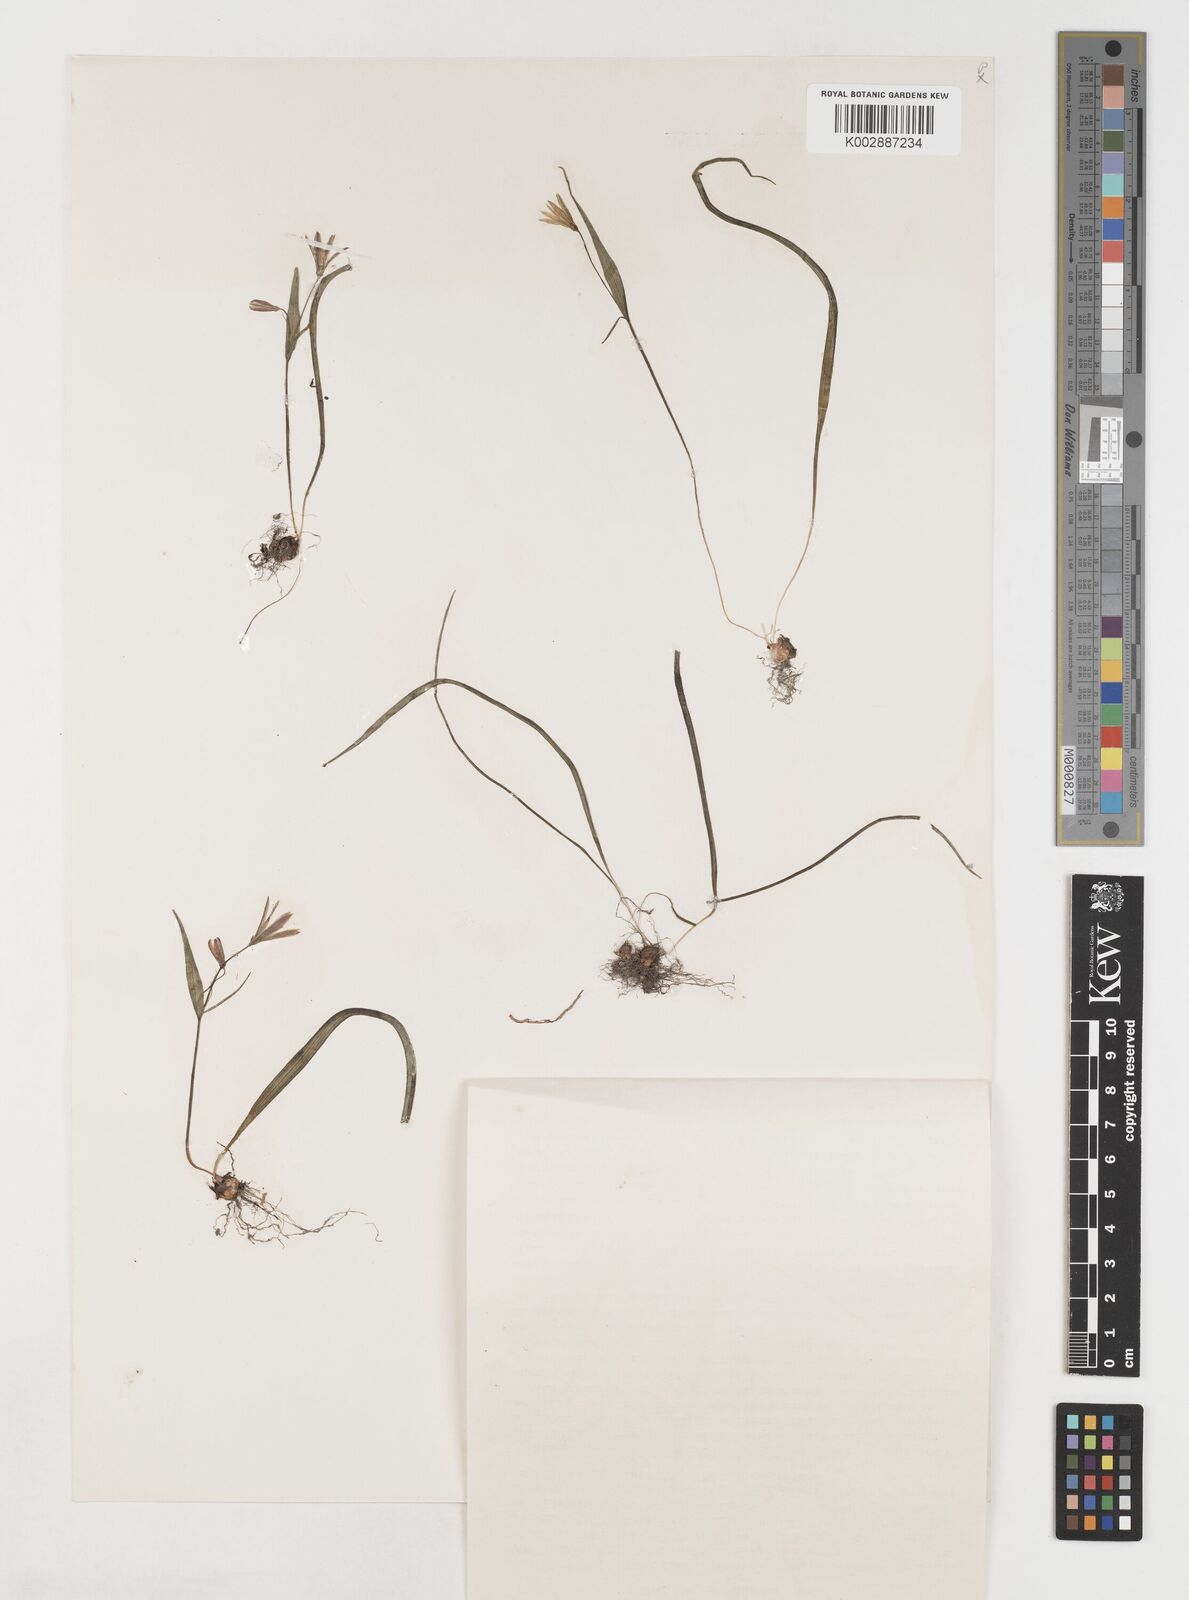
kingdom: Plantae
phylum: Tracheophyta
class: Liliopsida
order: Liliales
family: Liliaceae
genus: Gagea
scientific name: Gagea granulosa
